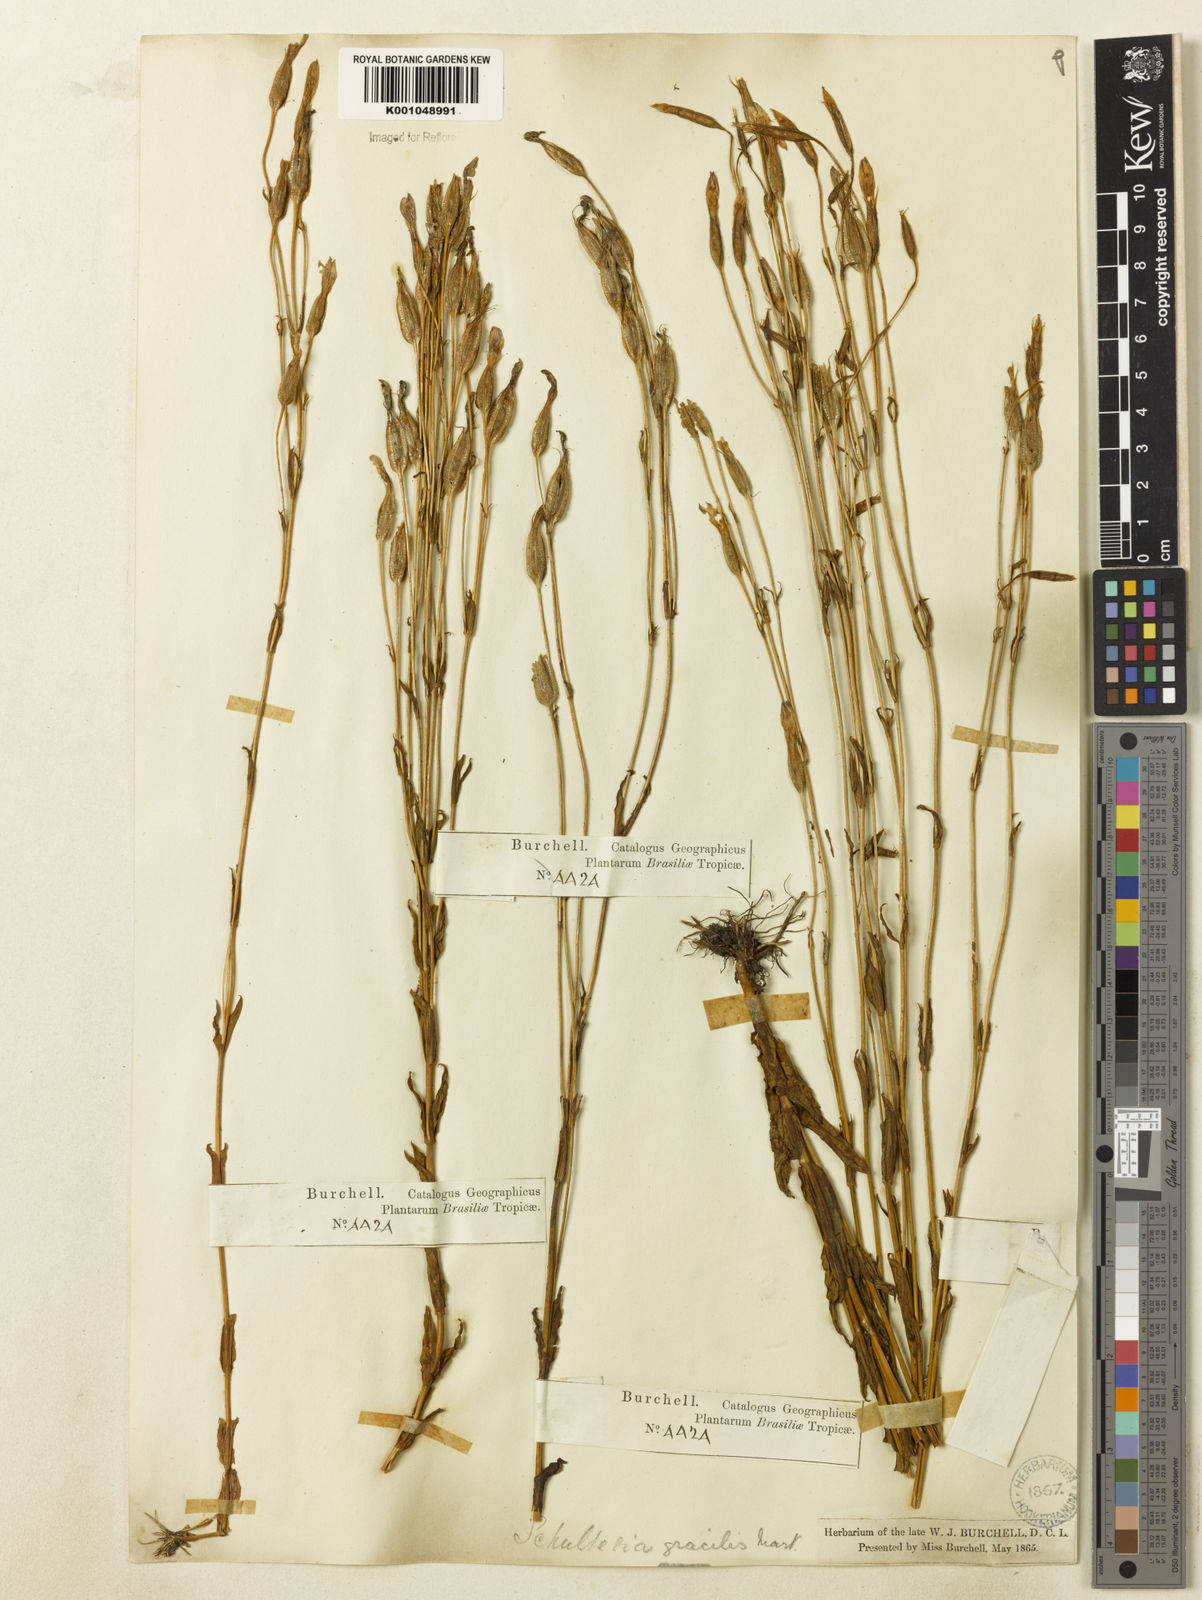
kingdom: Plantae
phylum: Tracheophyta
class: Magnoliopsida
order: Gentianales
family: Gentianaceae
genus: Schultesia
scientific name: Schultesia australis
